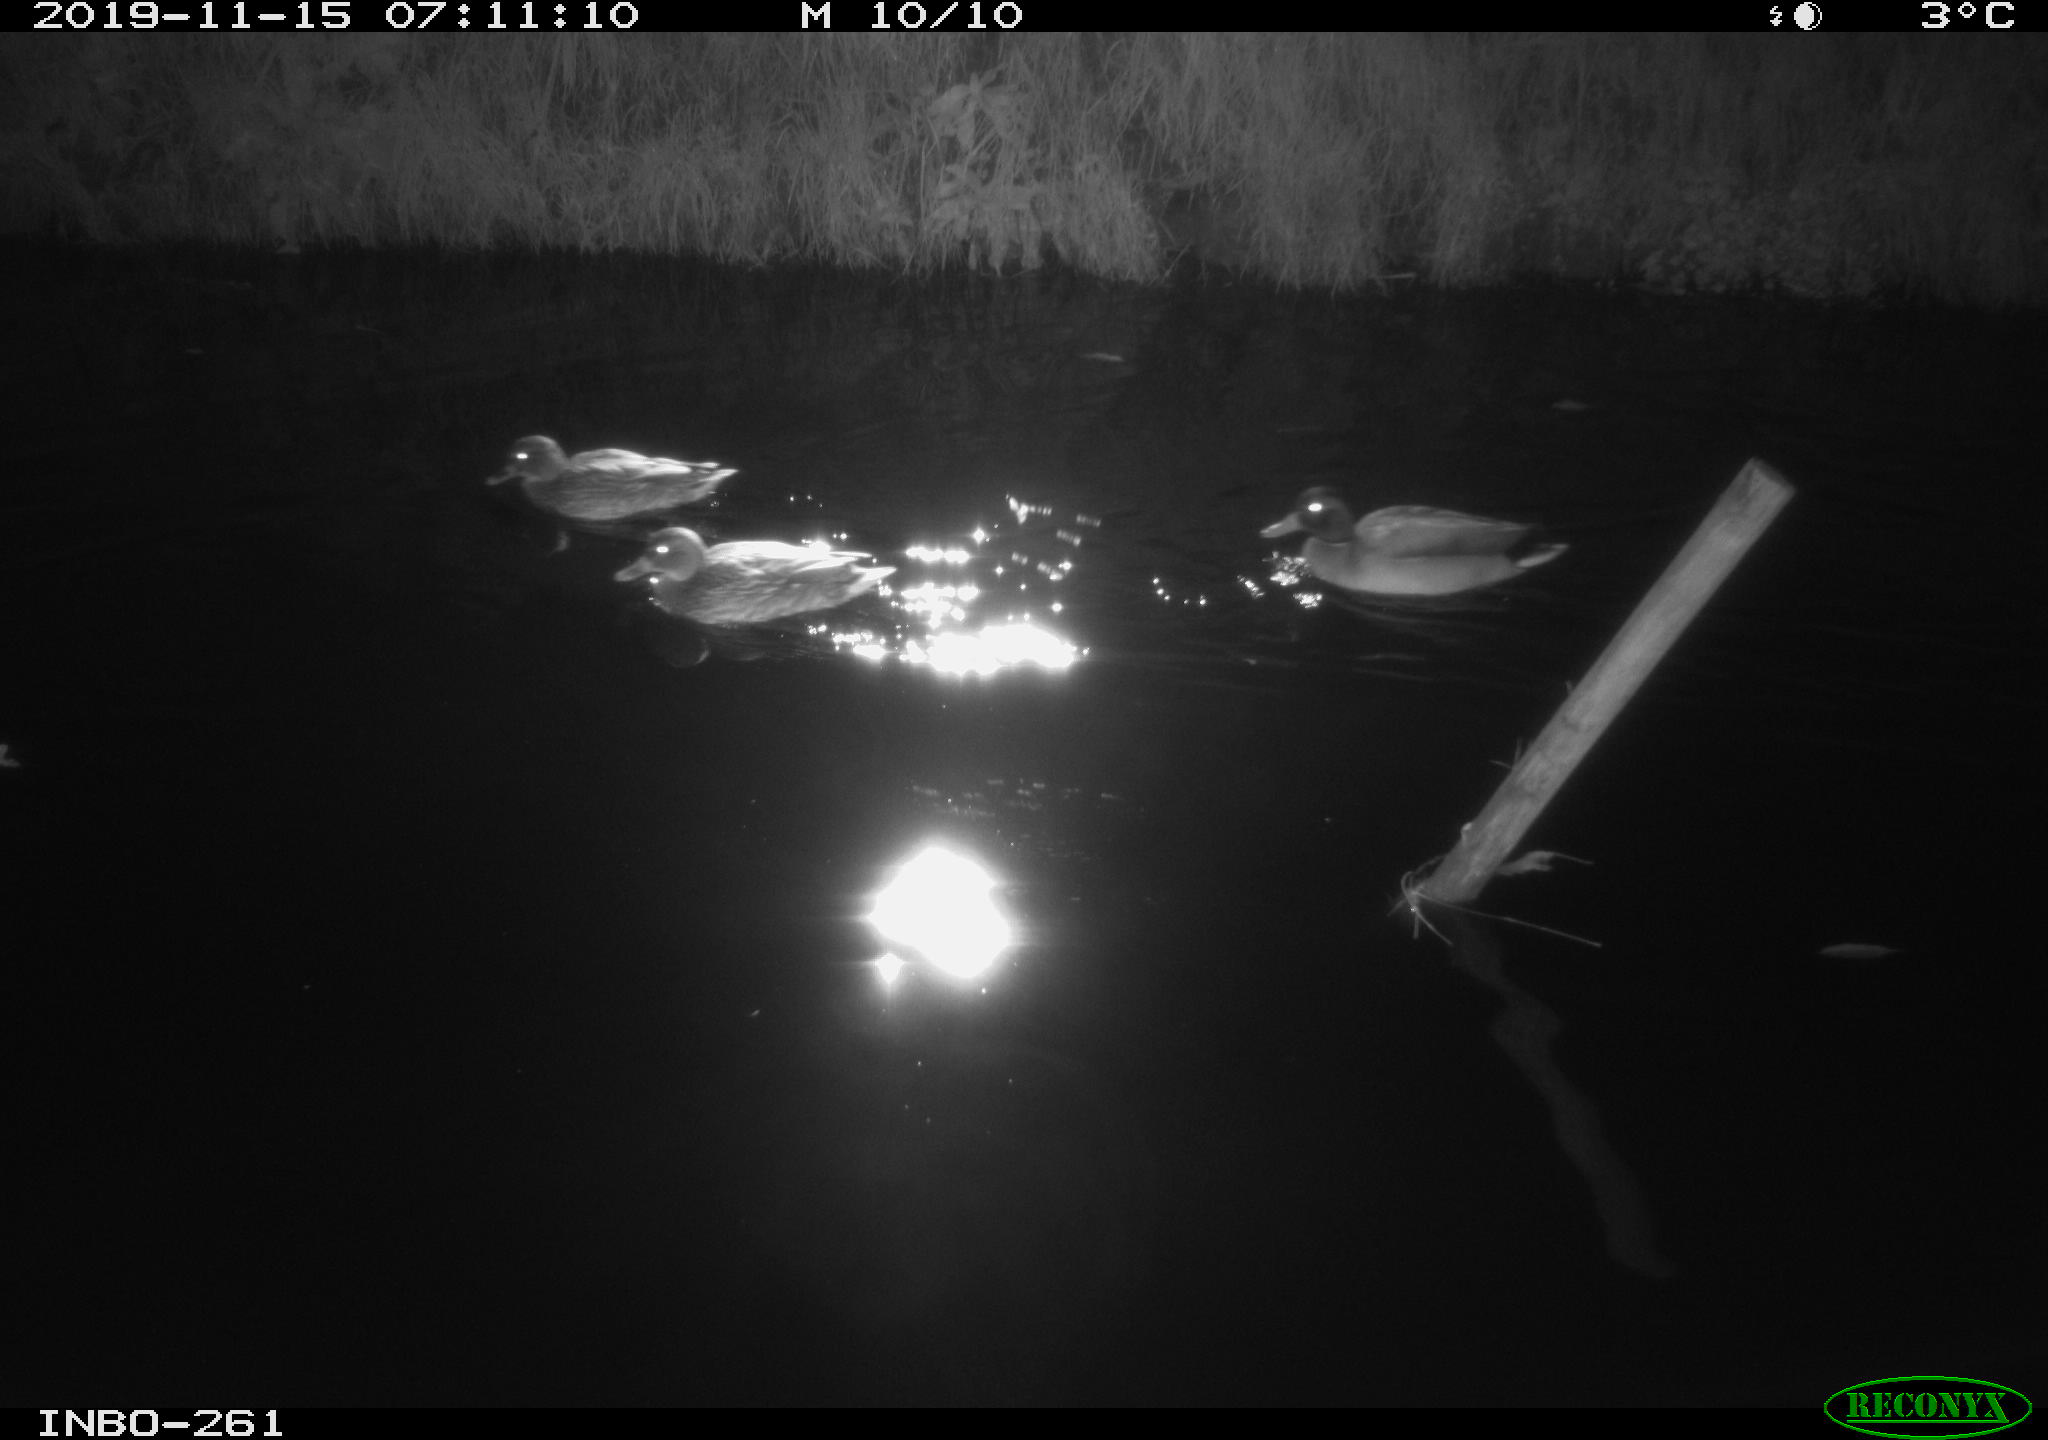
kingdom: Animalia
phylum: Chordata
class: Aves
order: Anseriformes
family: Anatidae
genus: Anas
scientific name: Anas platyrhynchos
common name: Mallard
